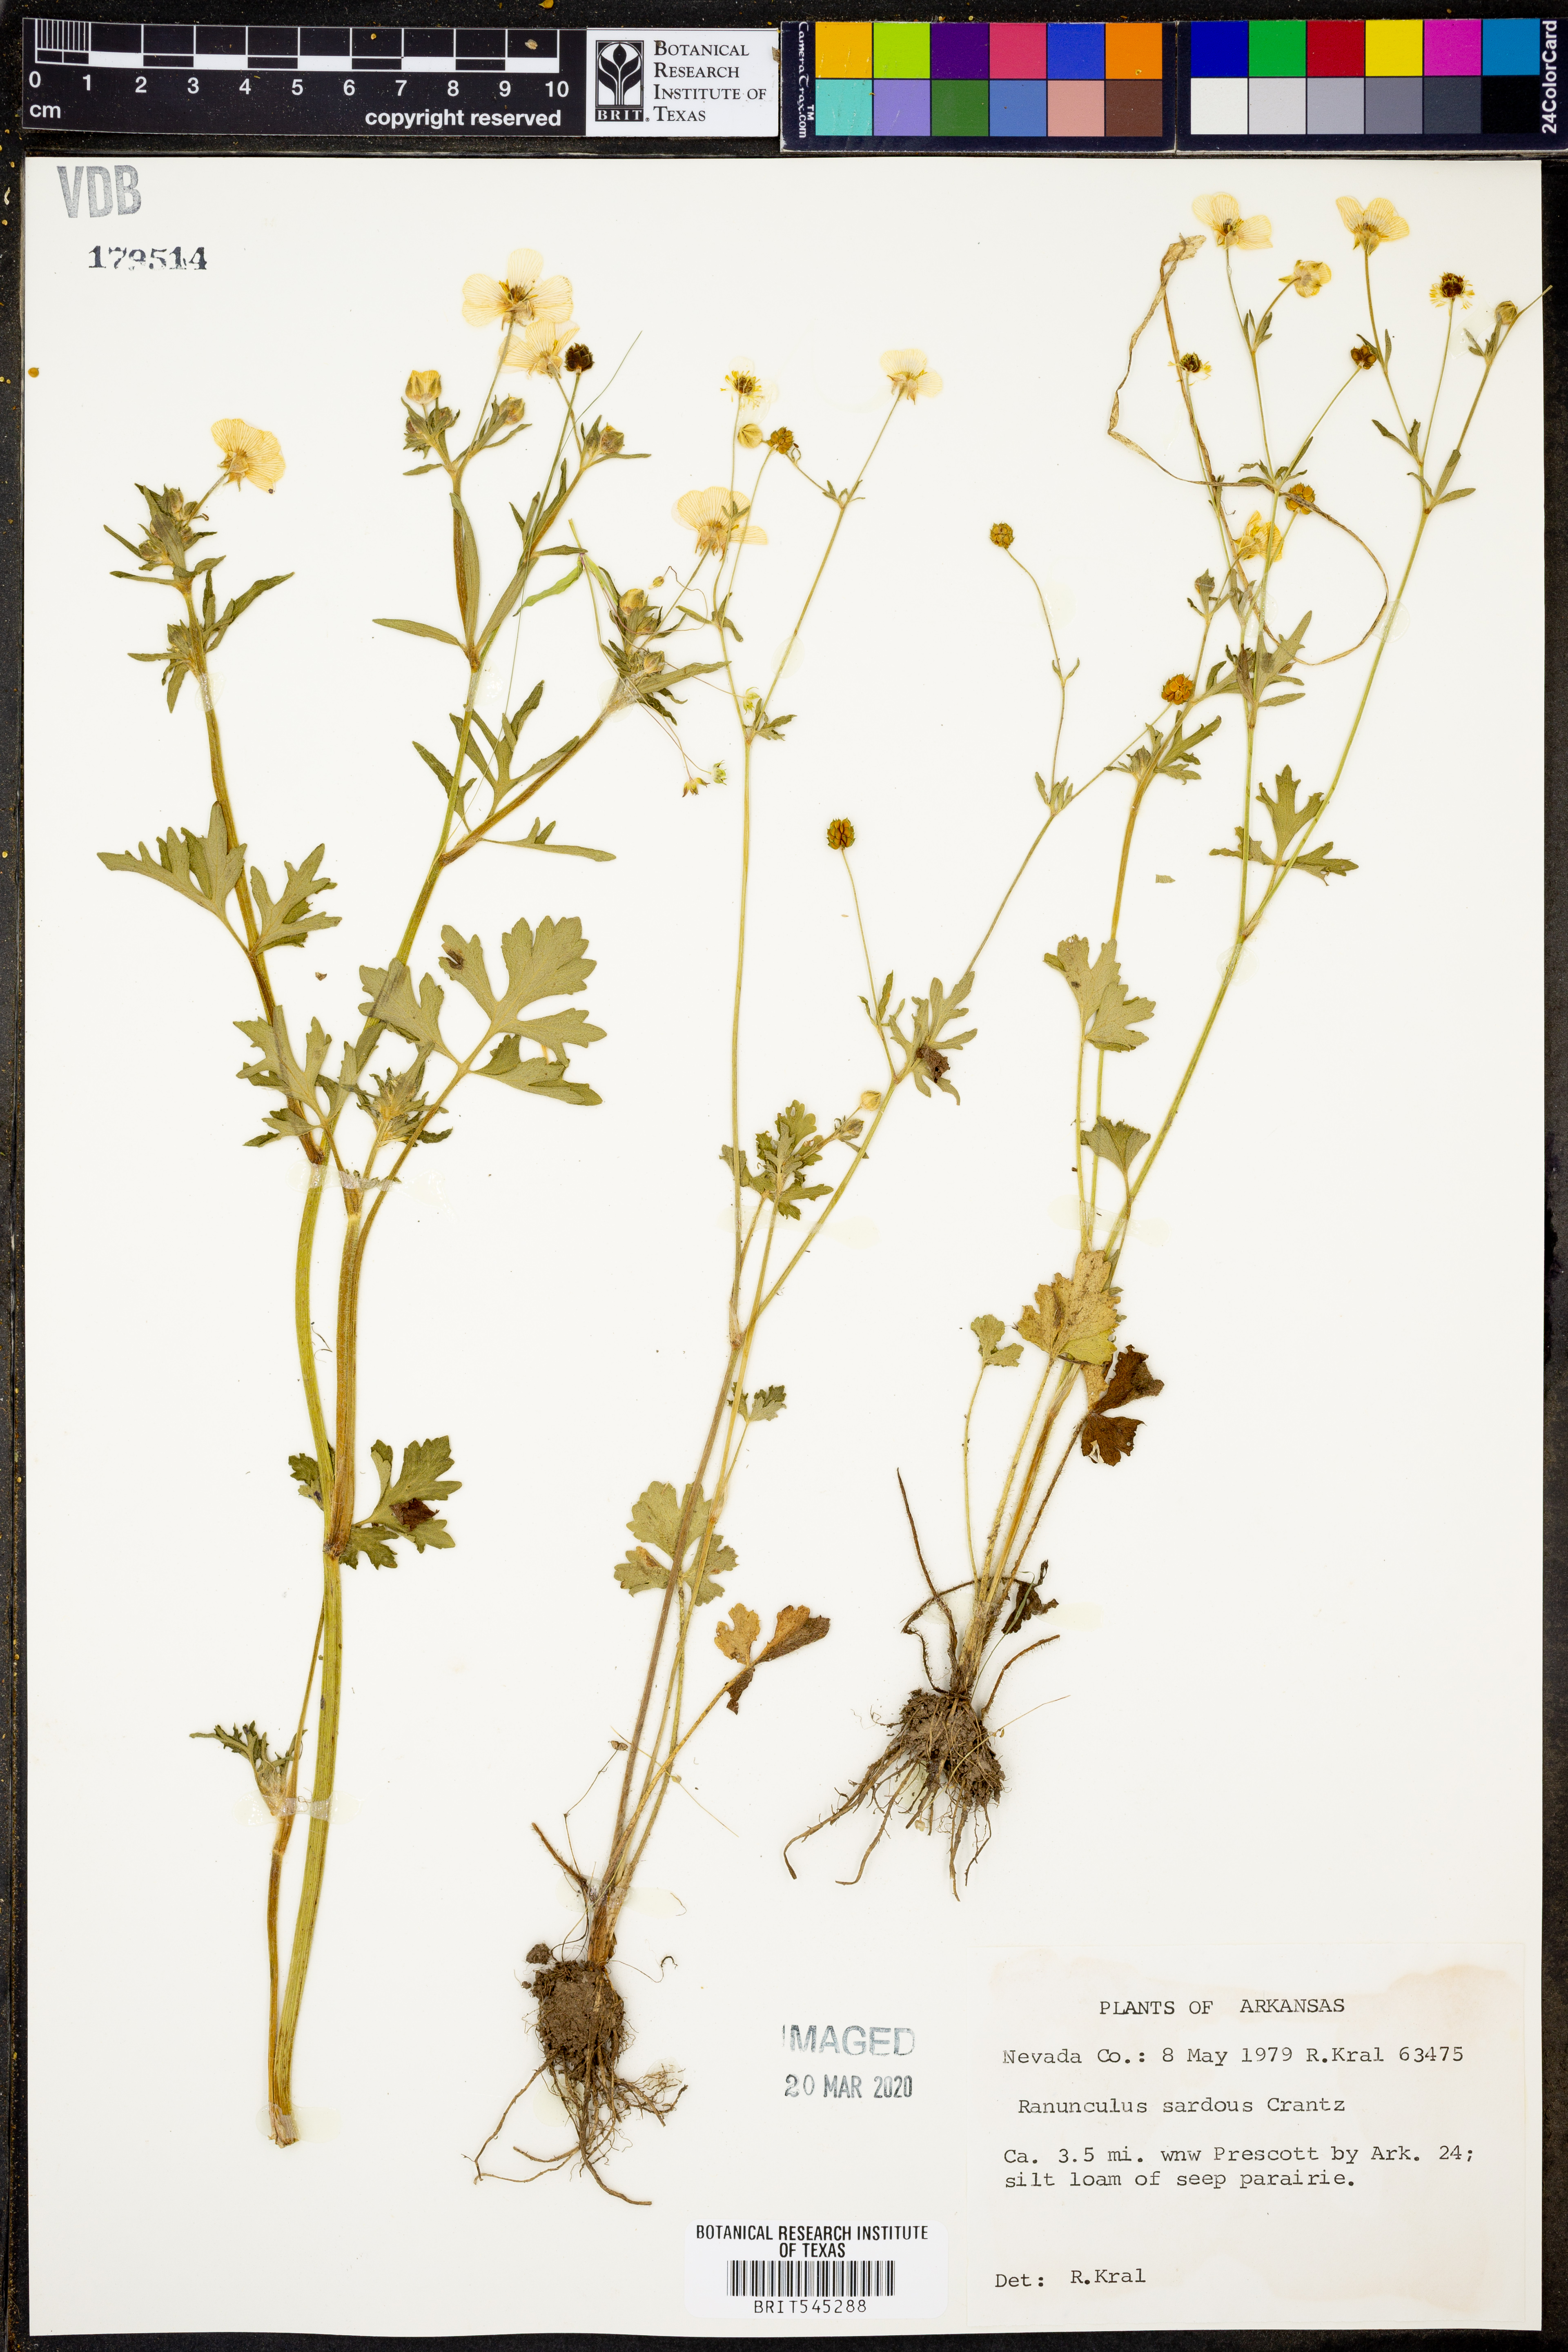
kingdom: Plantae
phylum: Tracheophyta
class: Magnoliopsida
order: Ranunculales
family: Ranunculaceae
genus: Ranunculus
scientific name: Ranunculus sardous
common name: Hairy buttercup
